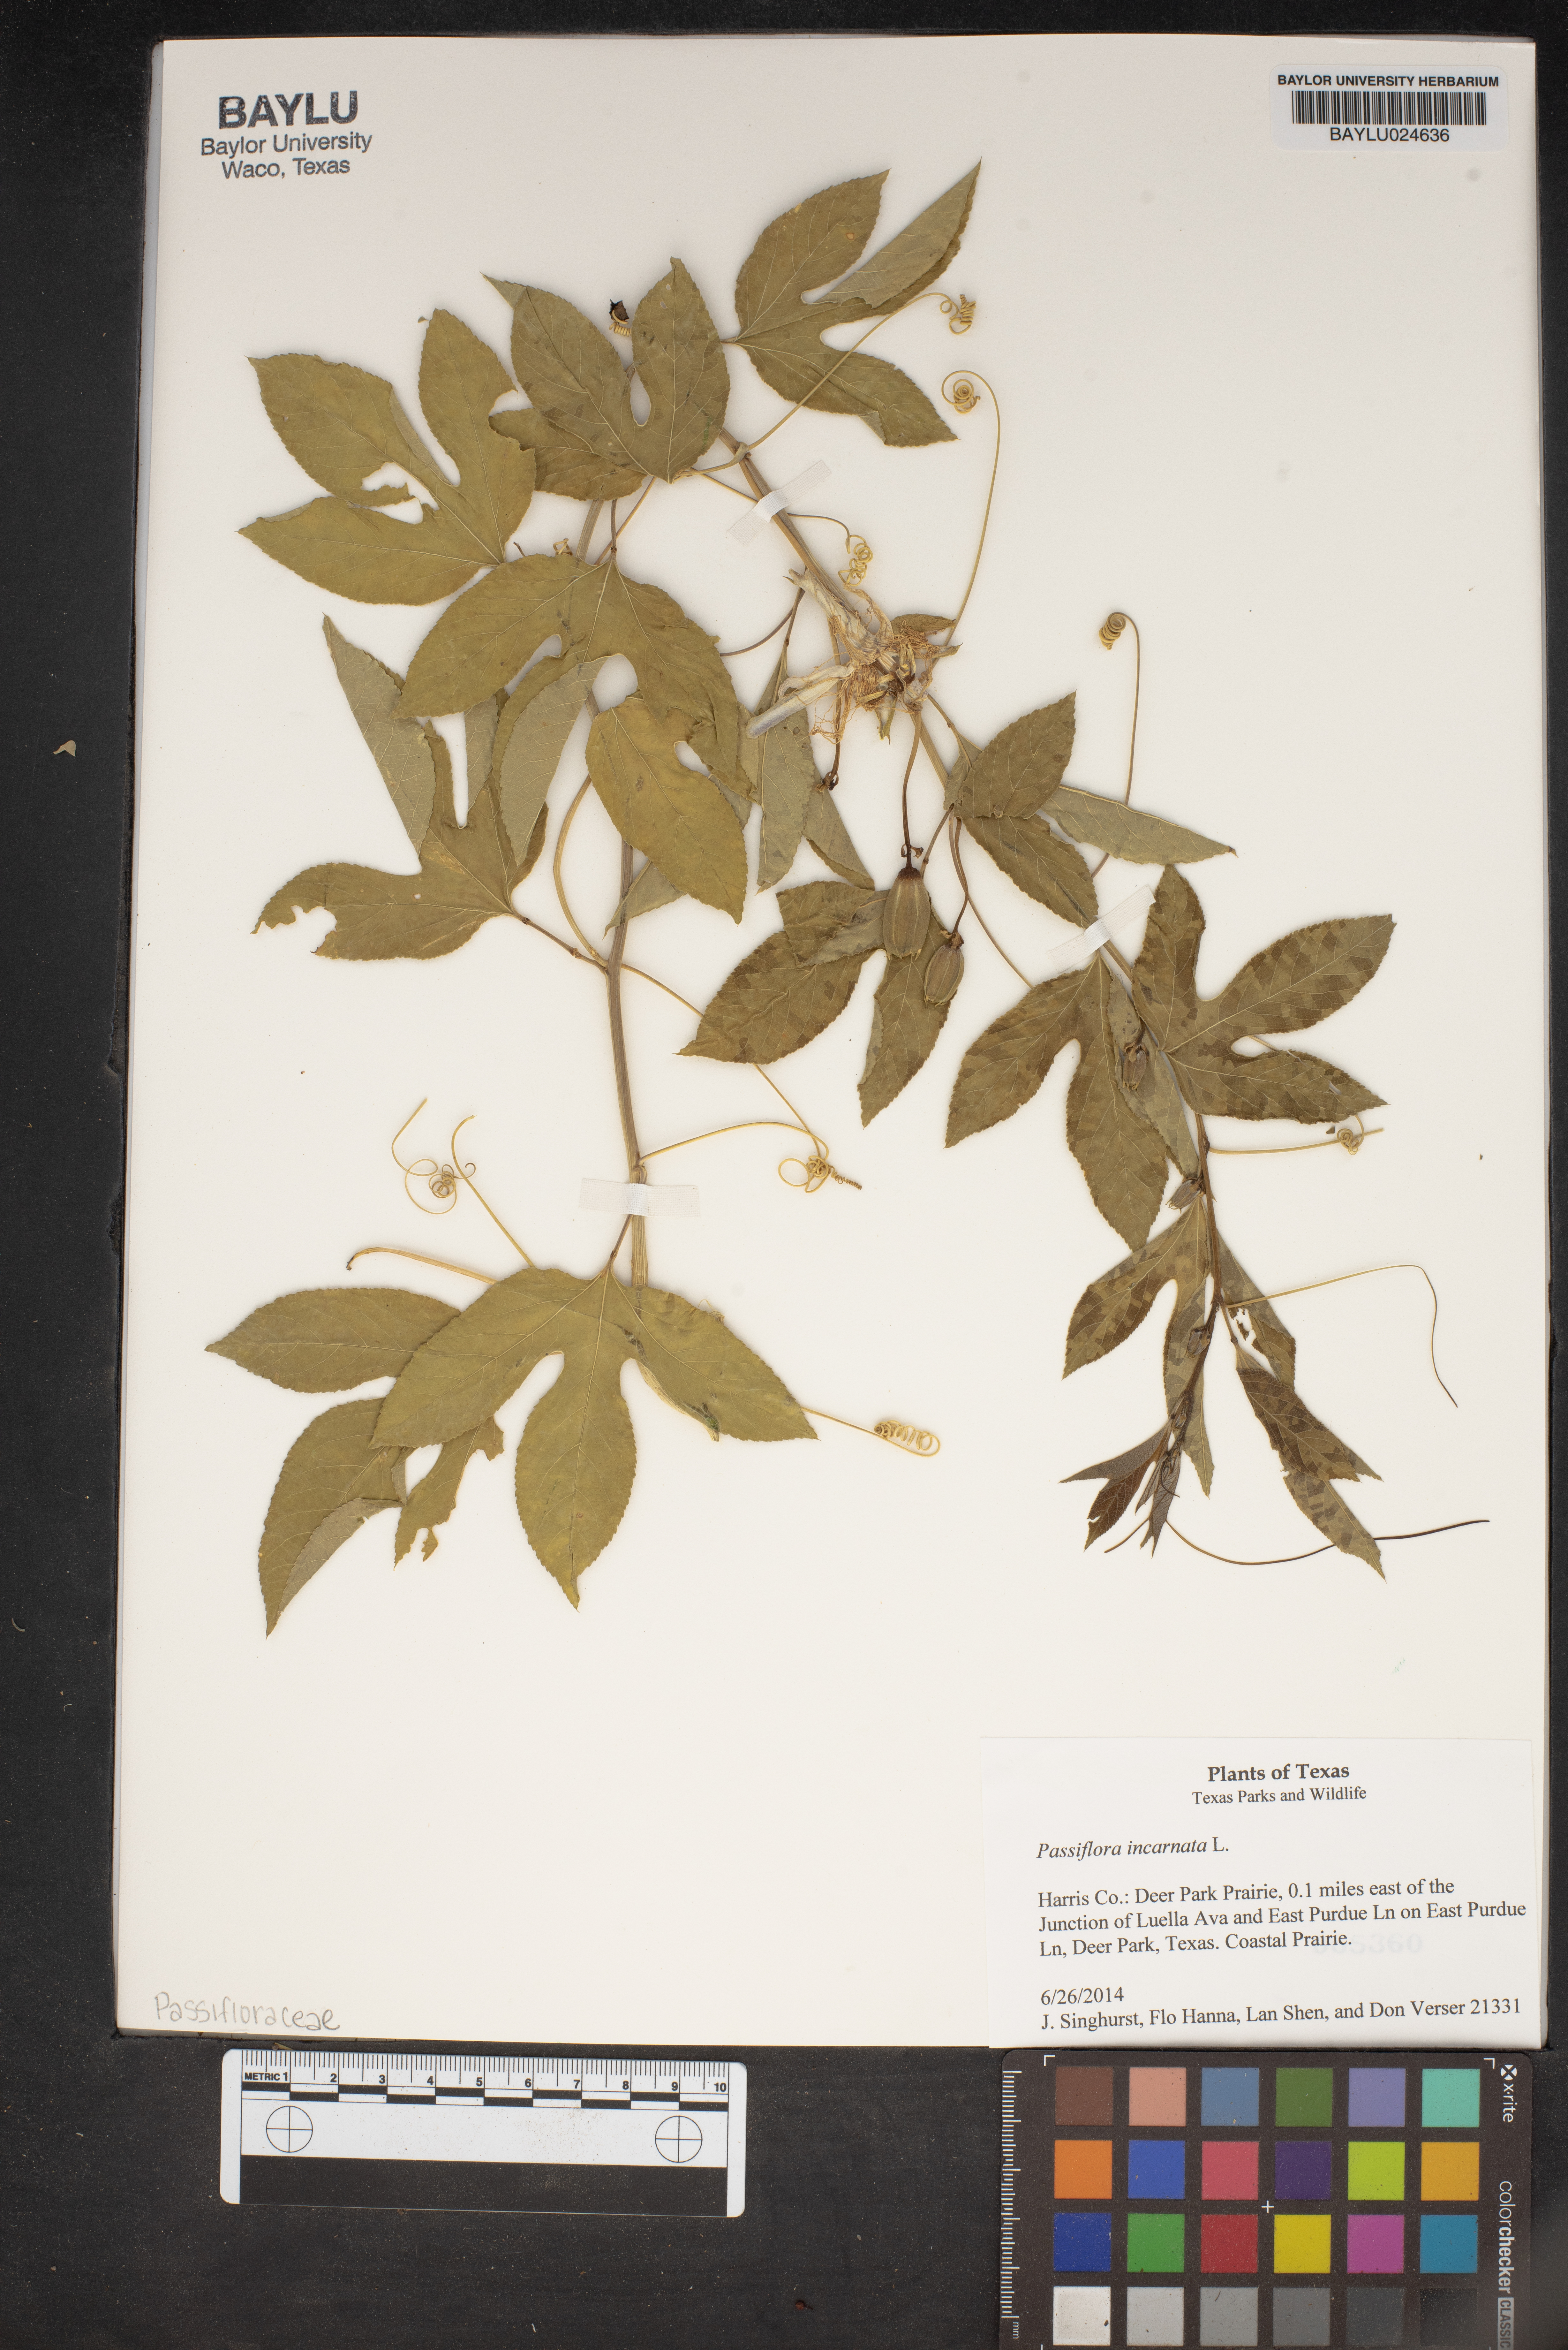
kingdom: Plantae
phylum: Tracheophyta
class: Magnoliopsida
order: Malpighiales
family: Passifloraceae
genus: Passiflora
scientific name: Passiflora incarnata
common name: Apricot-vine
